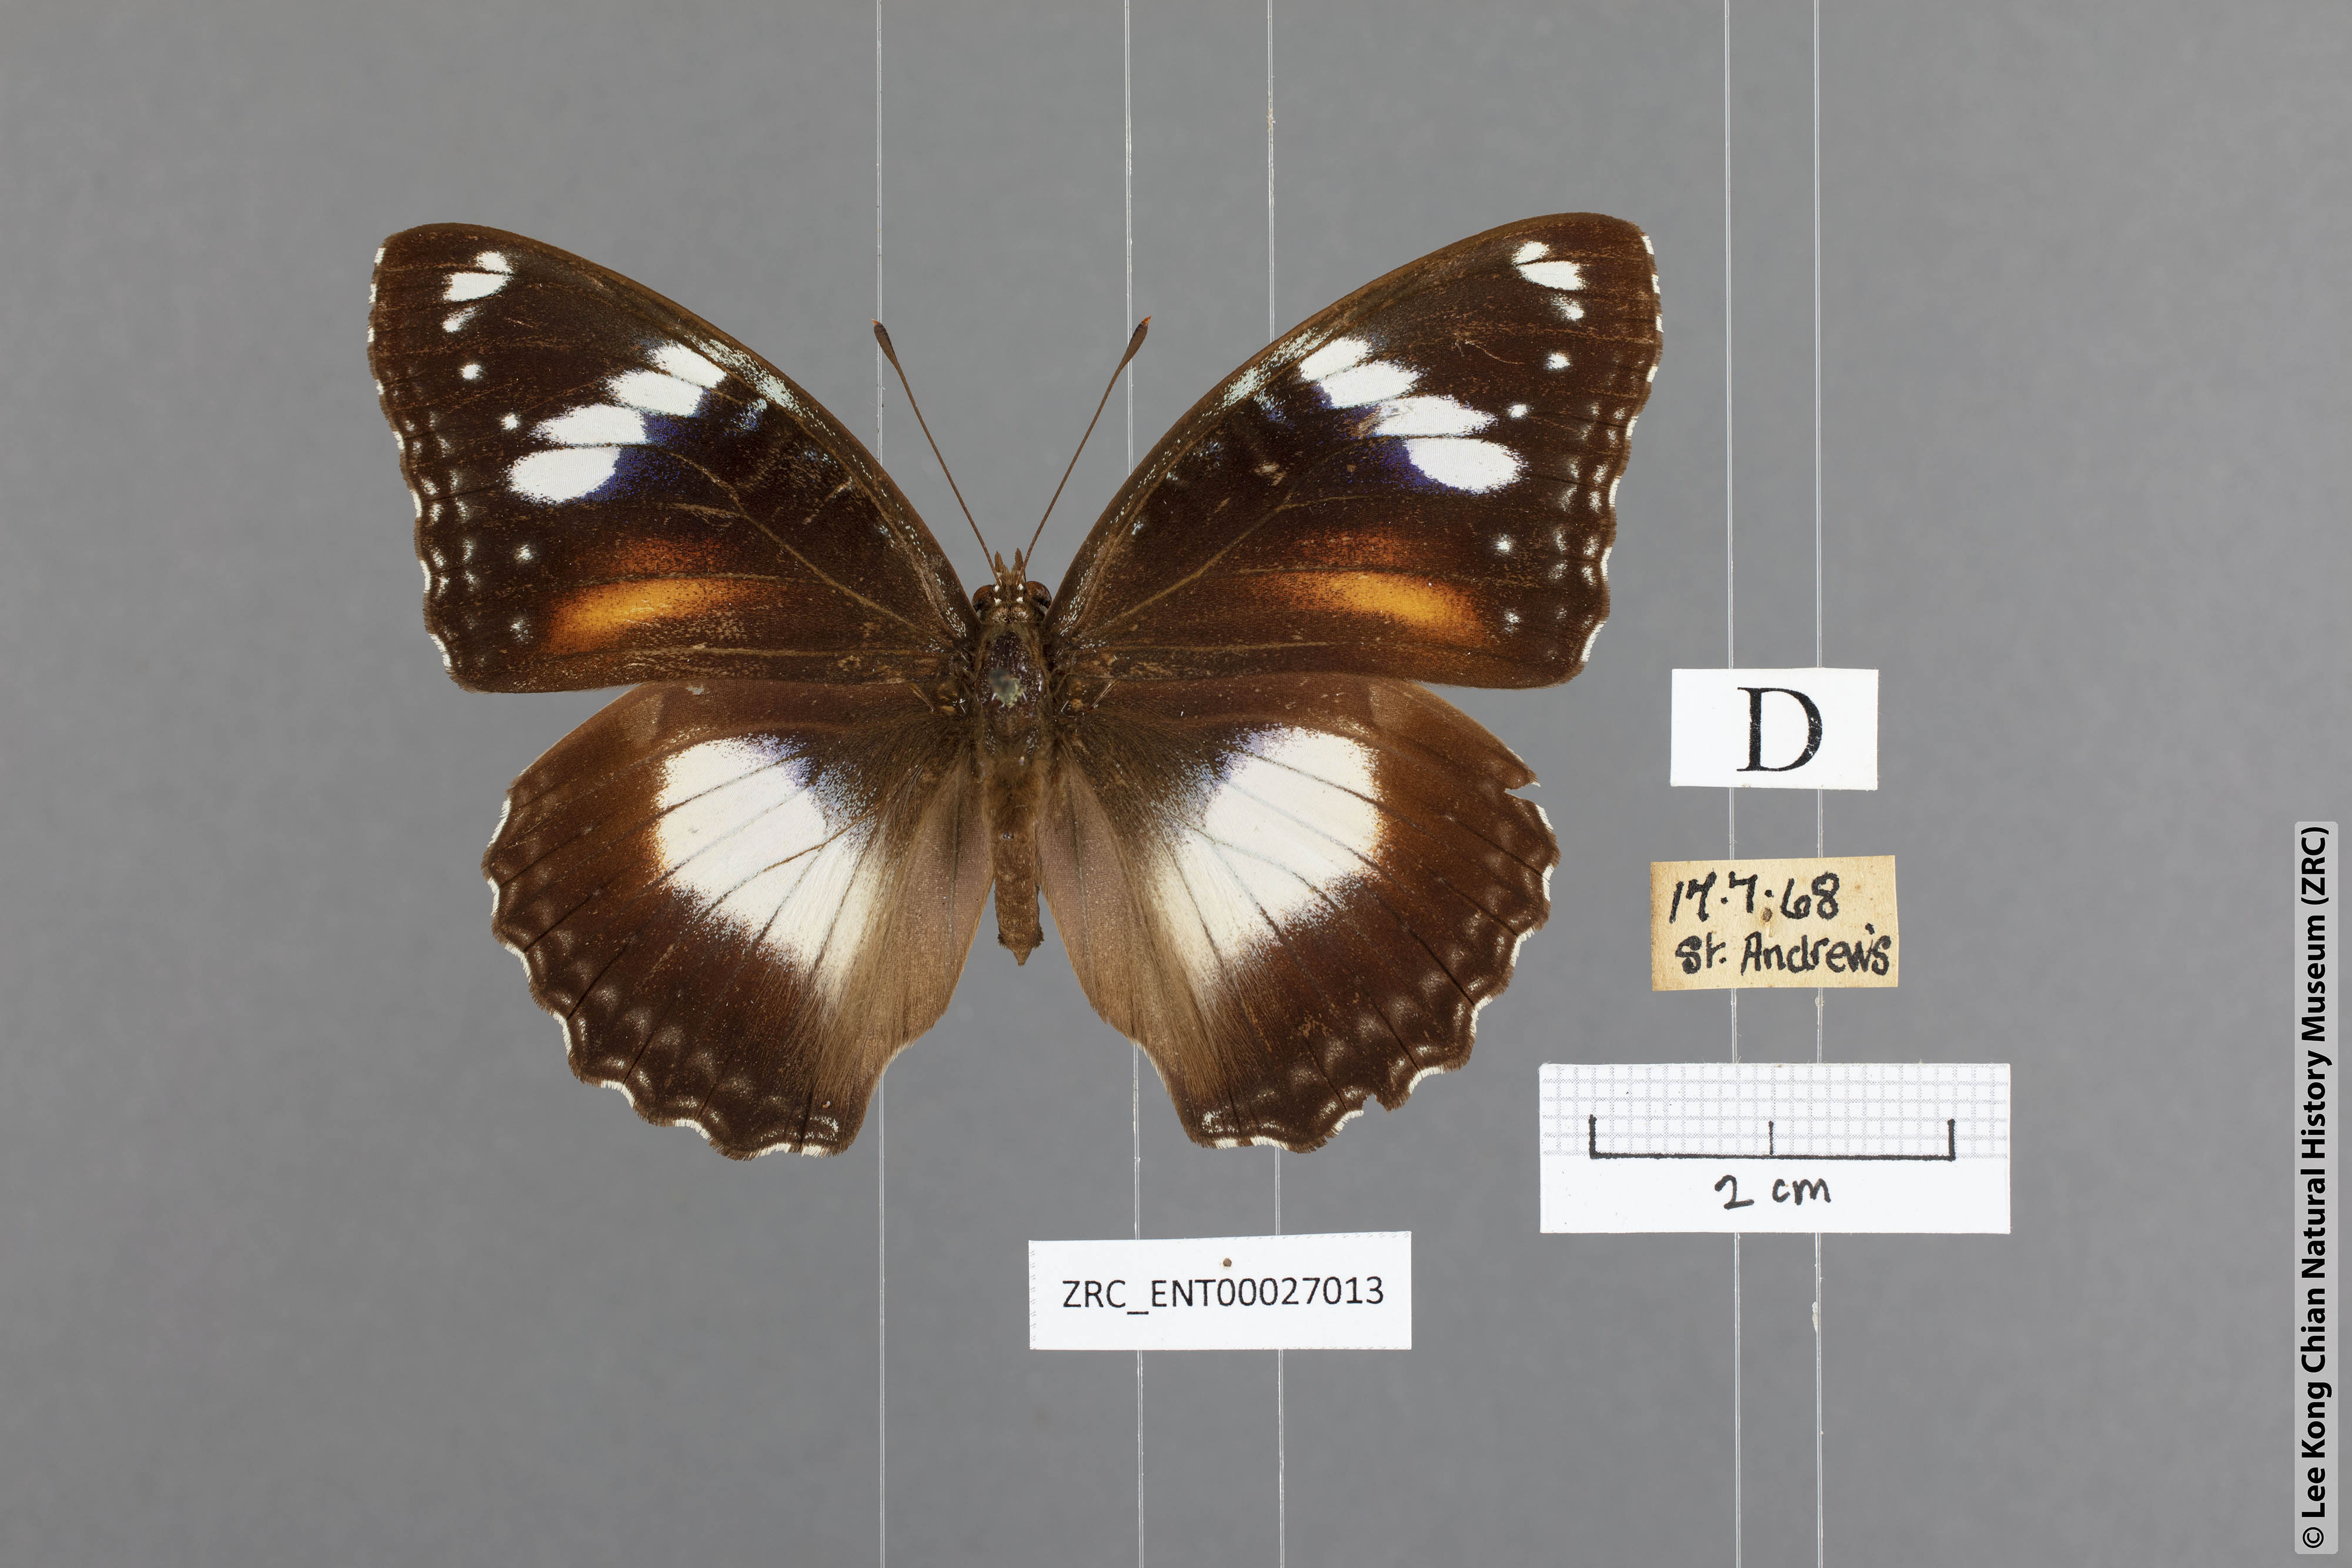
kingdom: Animalia
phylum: Arthropoda
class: Insecta
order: Lepidoptera
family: Nymphalidae
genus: Hypolimnas
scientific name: Hypolimnas bolina
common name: Great eggfly
